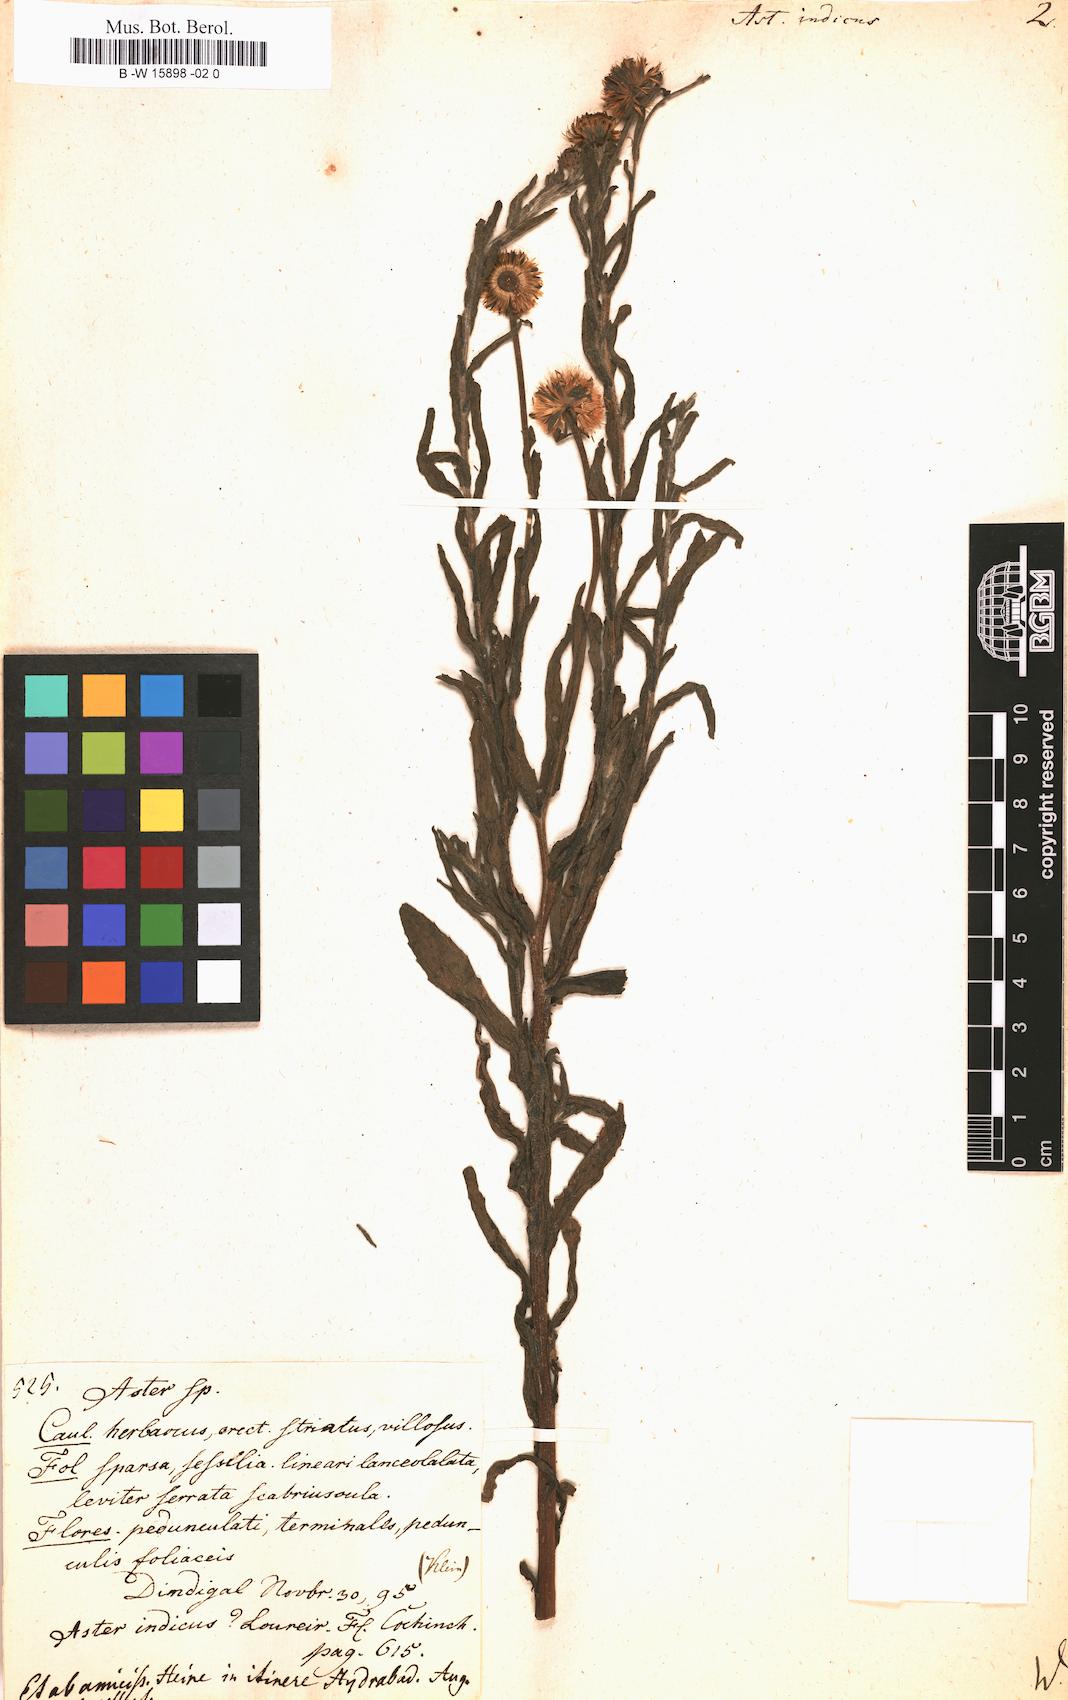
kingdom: Plantae
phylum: Tracheophyta
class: Magnoliopsida
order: Asterales
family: Asteraceae
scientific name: Asteraceae
